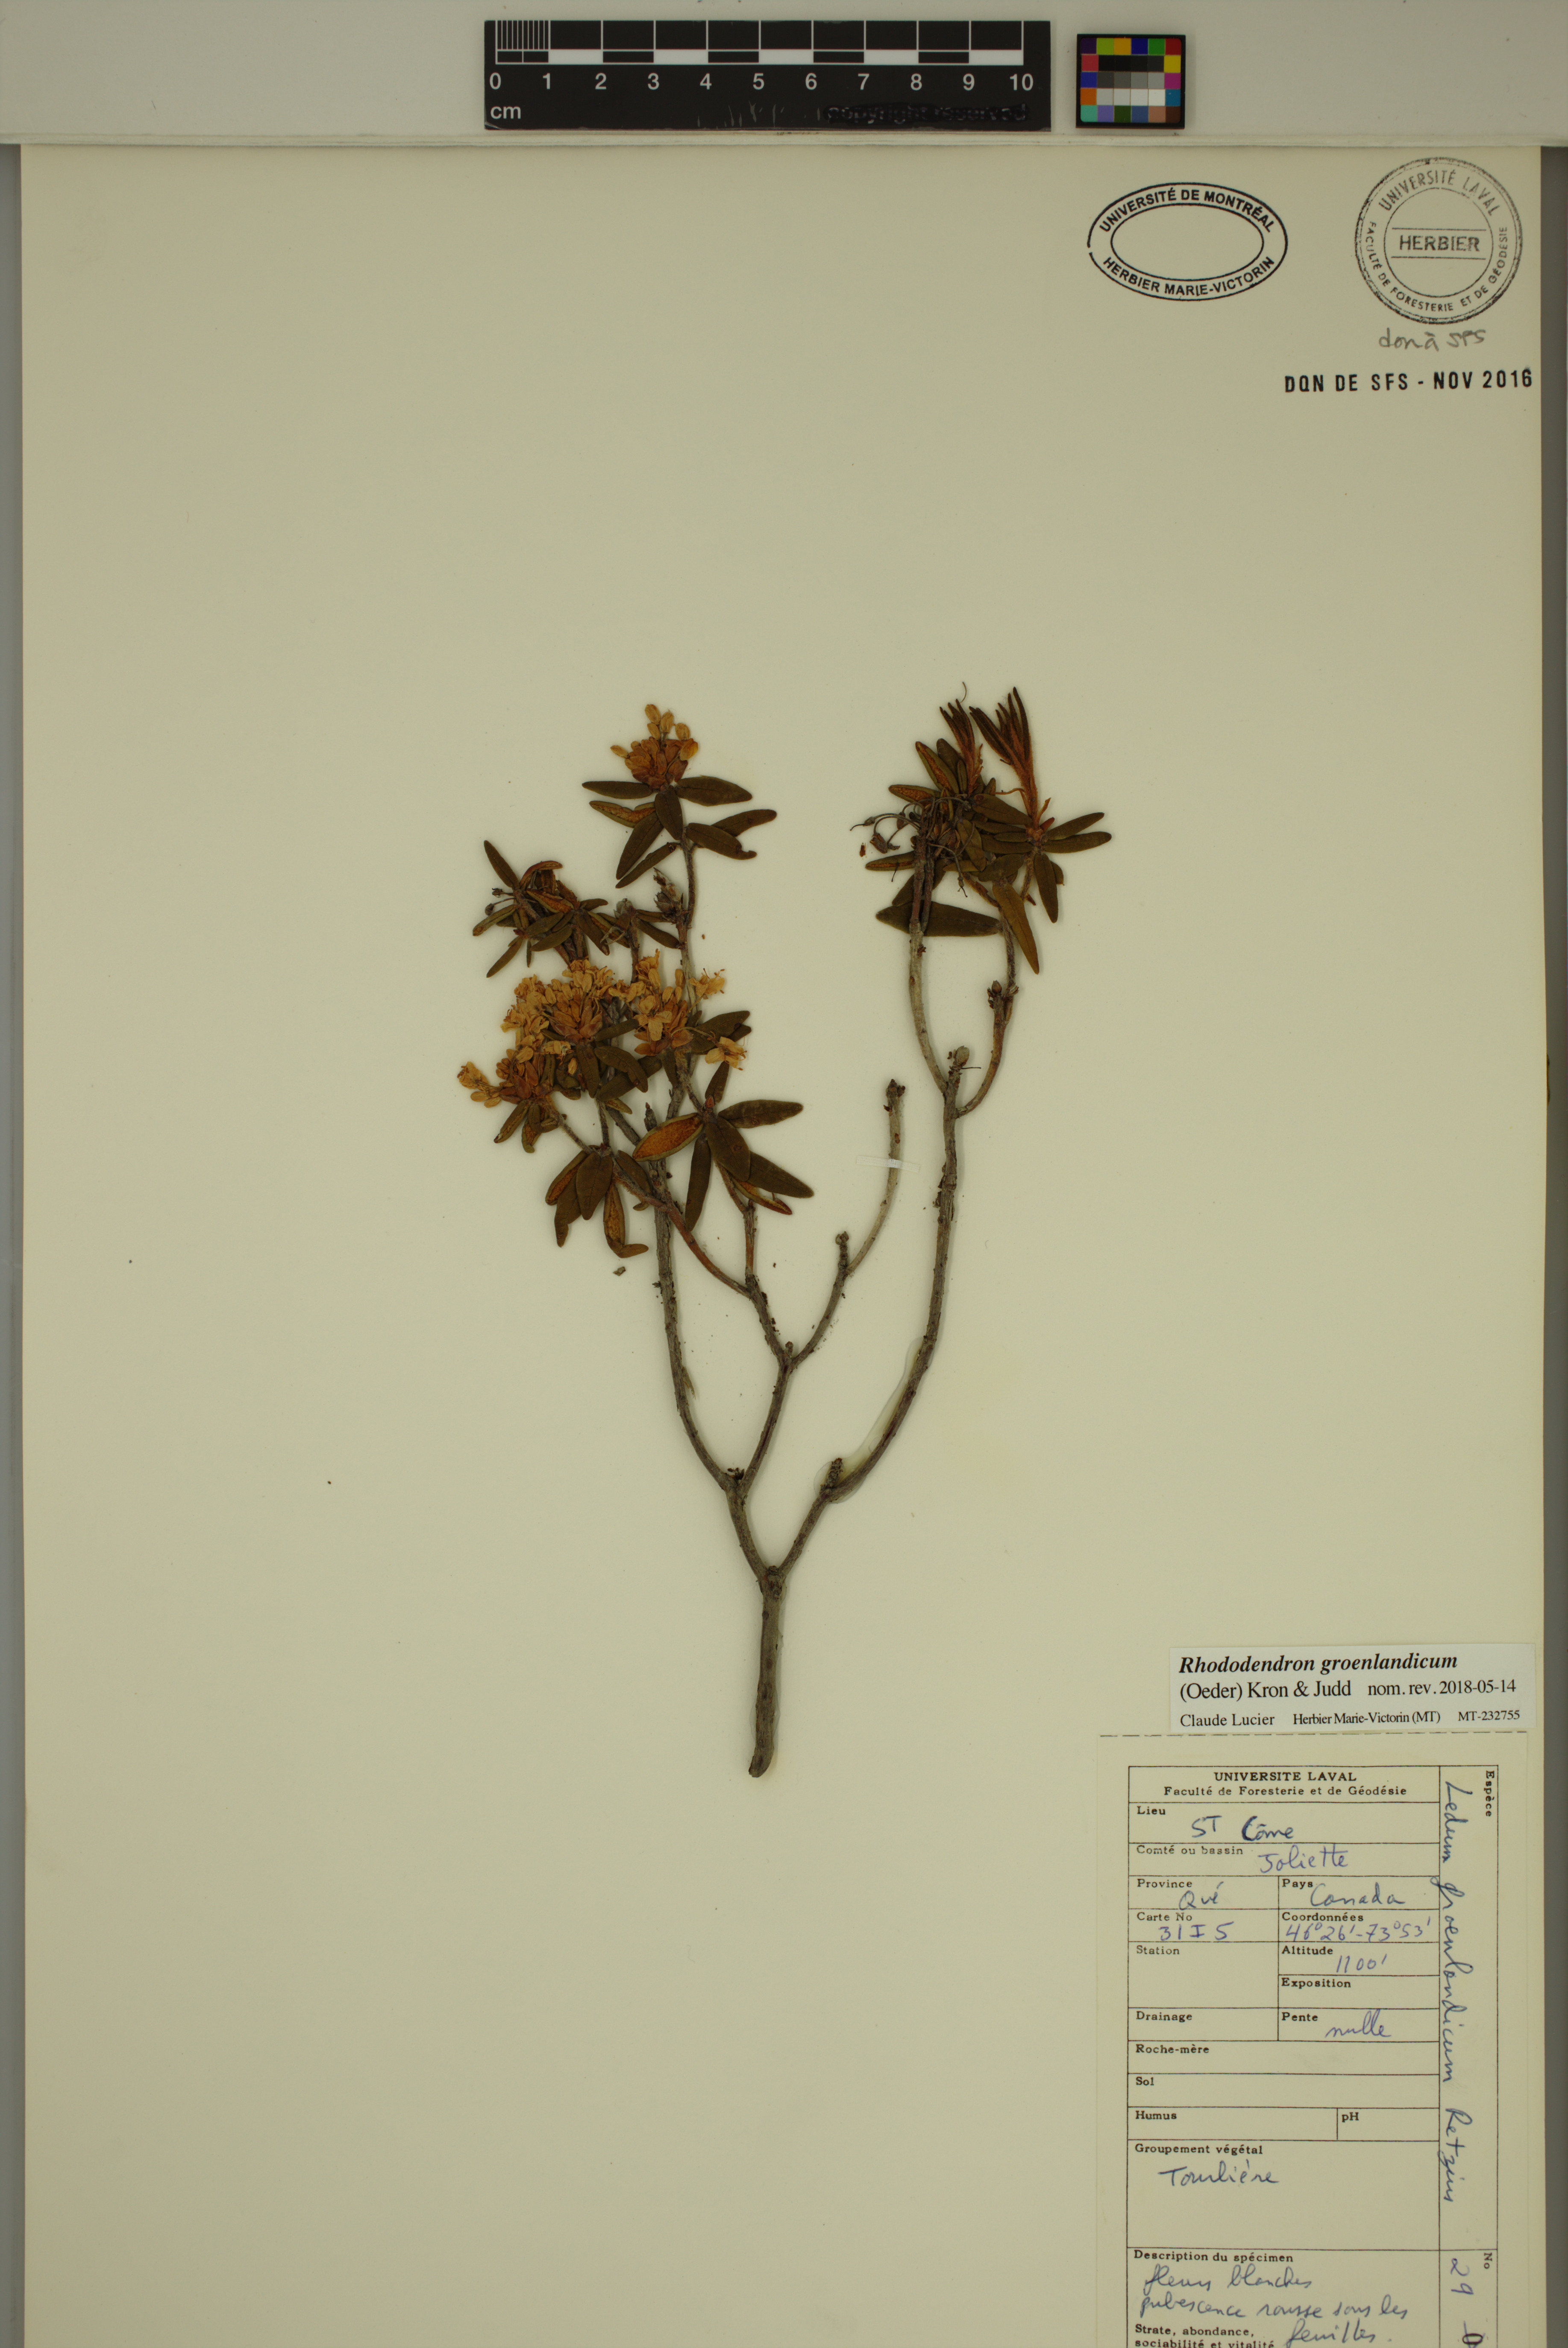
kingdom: Plantae
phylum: Tracheophyta
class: Magnoliopsida
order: Ericales
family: Ericaceae
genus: Rhododendron
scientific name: Rhododendron groenlandicum
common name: Bog labrador tea
